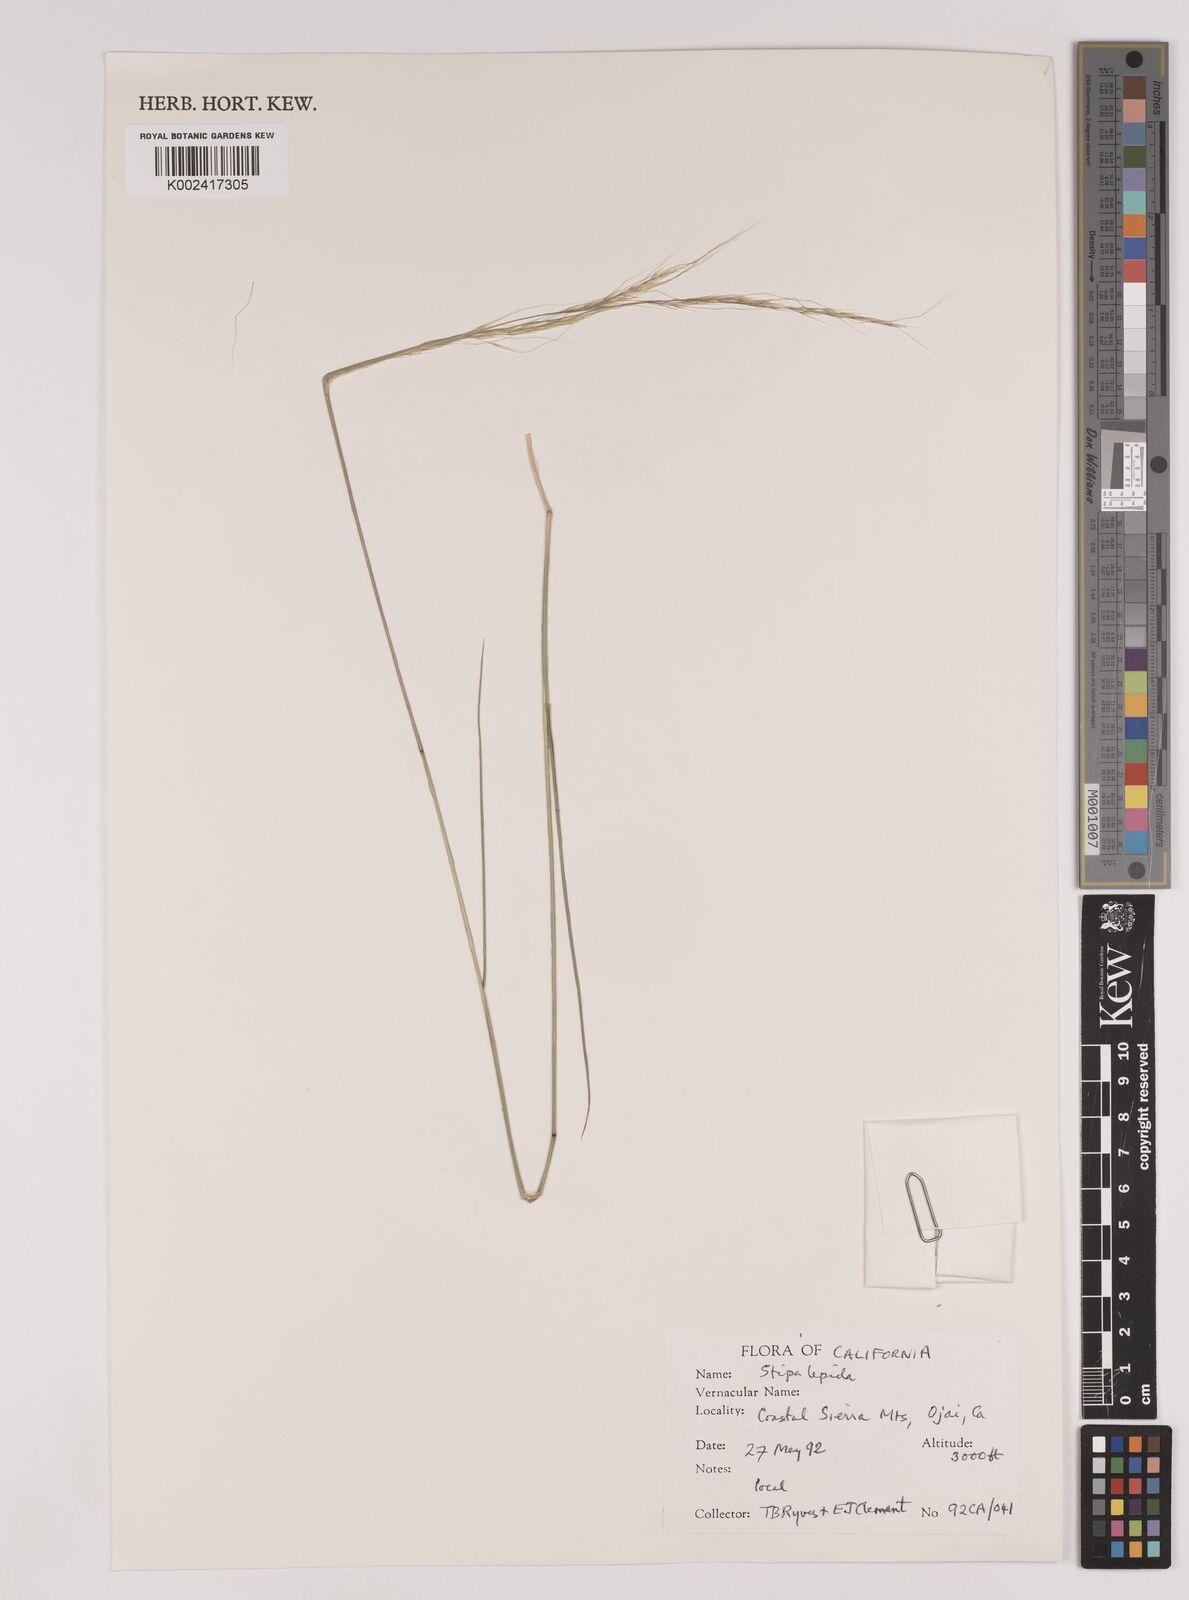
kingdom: Plantae
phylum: Tracheophyta
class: Liliopsida
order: Poales
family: Poaceae
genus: Nassella
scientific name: Nassella lepida
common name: Foothill needlegrass
